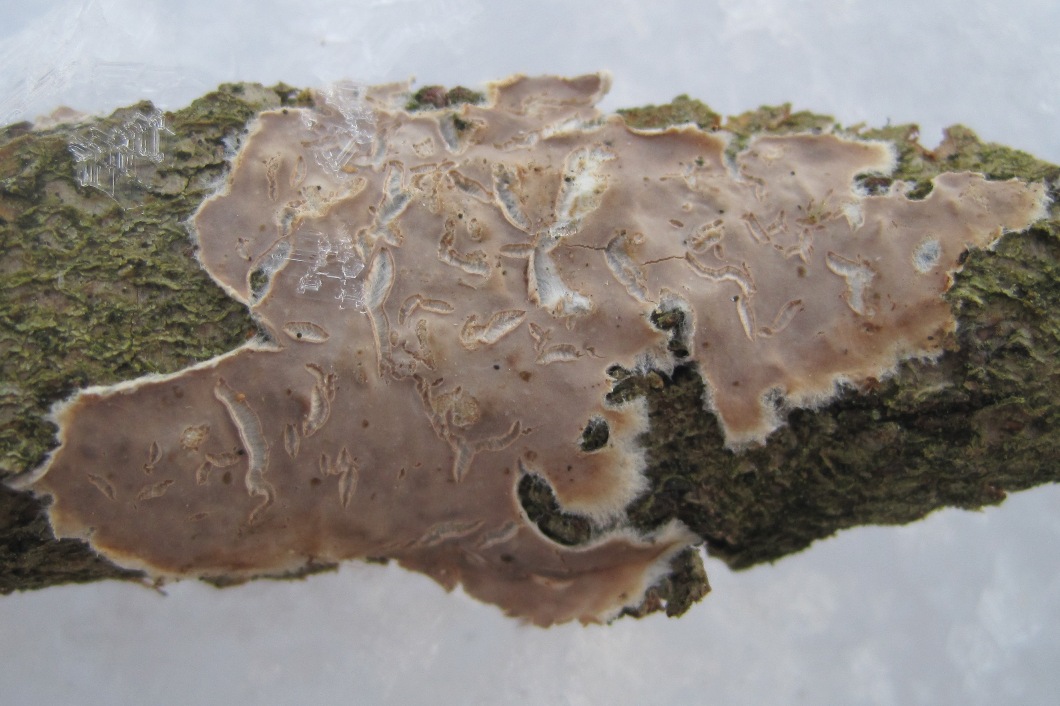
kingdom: Fungi
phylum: Basidiomycota
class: Agaricomycetes
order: Agaricales
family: Physalacriaceae
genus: Cylindrobasidium
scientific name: Cylindrobasidium evolvens
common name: sprækkehinde
